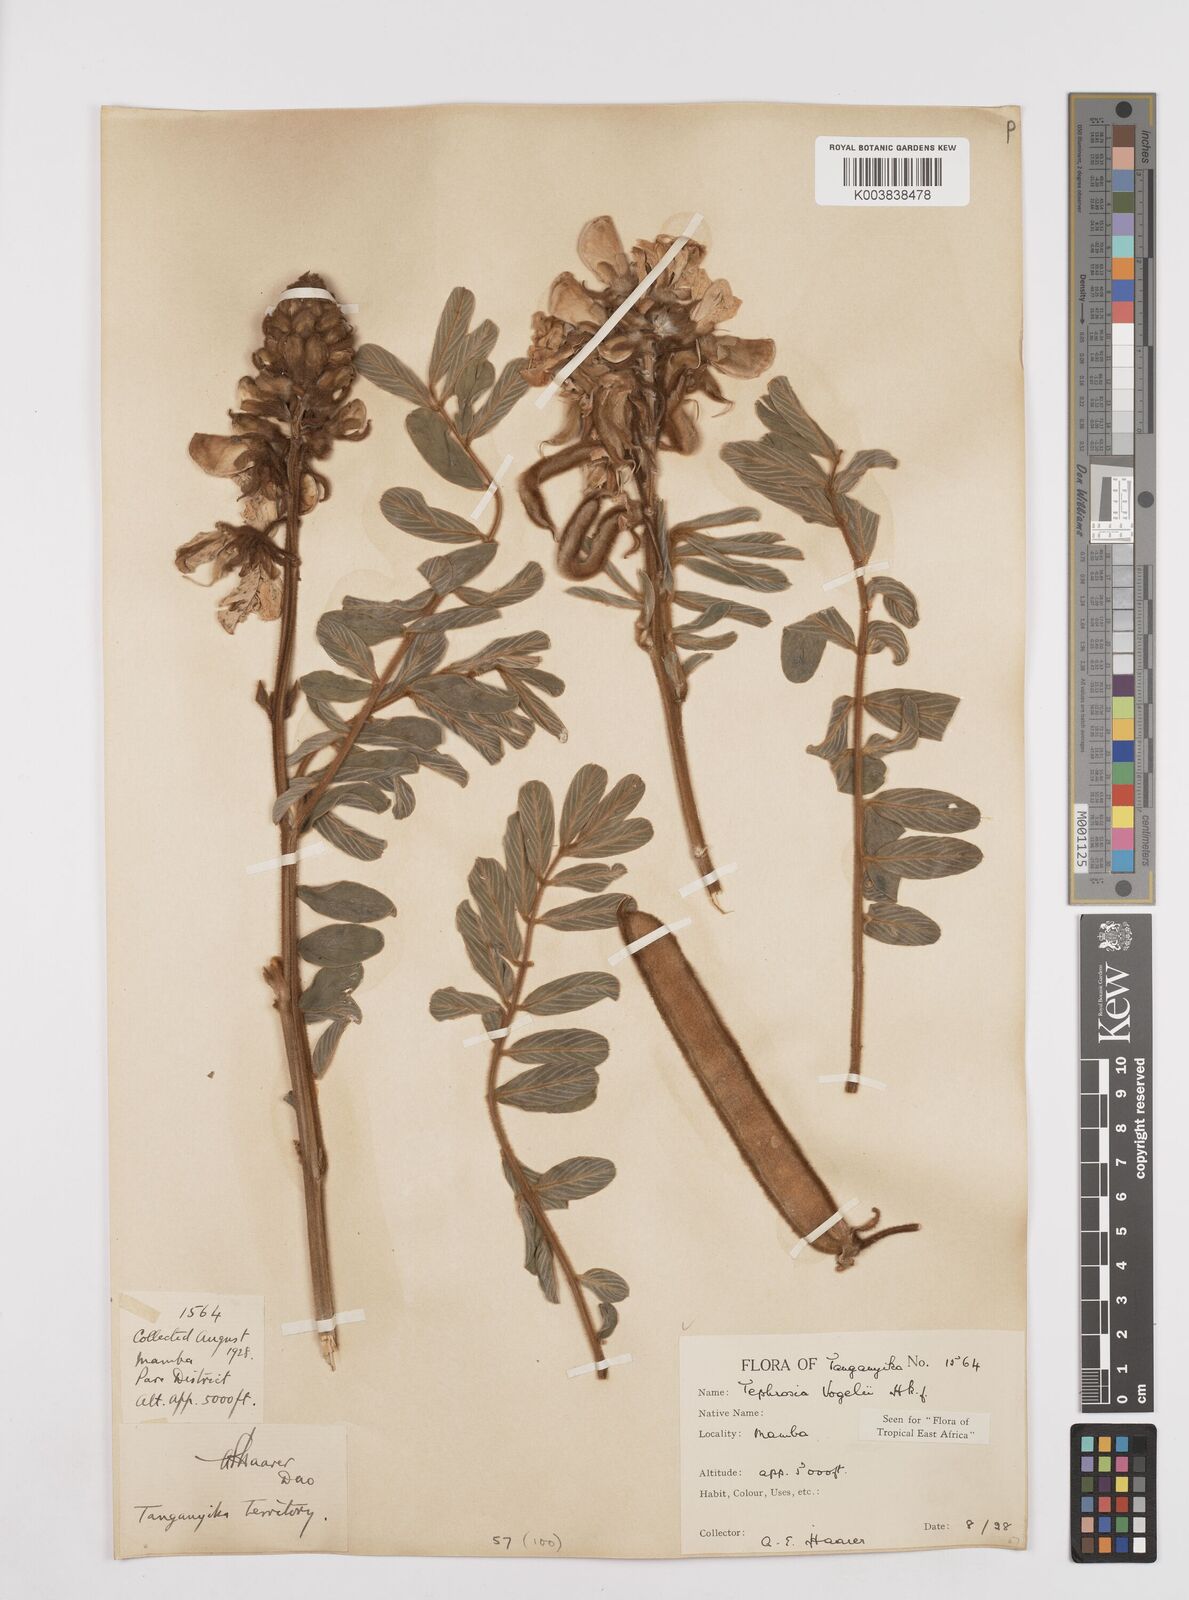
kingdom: Plantae
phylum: Tracheophyta
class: Magnoliopsida
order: Fabales
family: Fabaceae
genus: Tephrosia
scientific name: Tephrosia vogelii
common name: Vogel tephrosia
